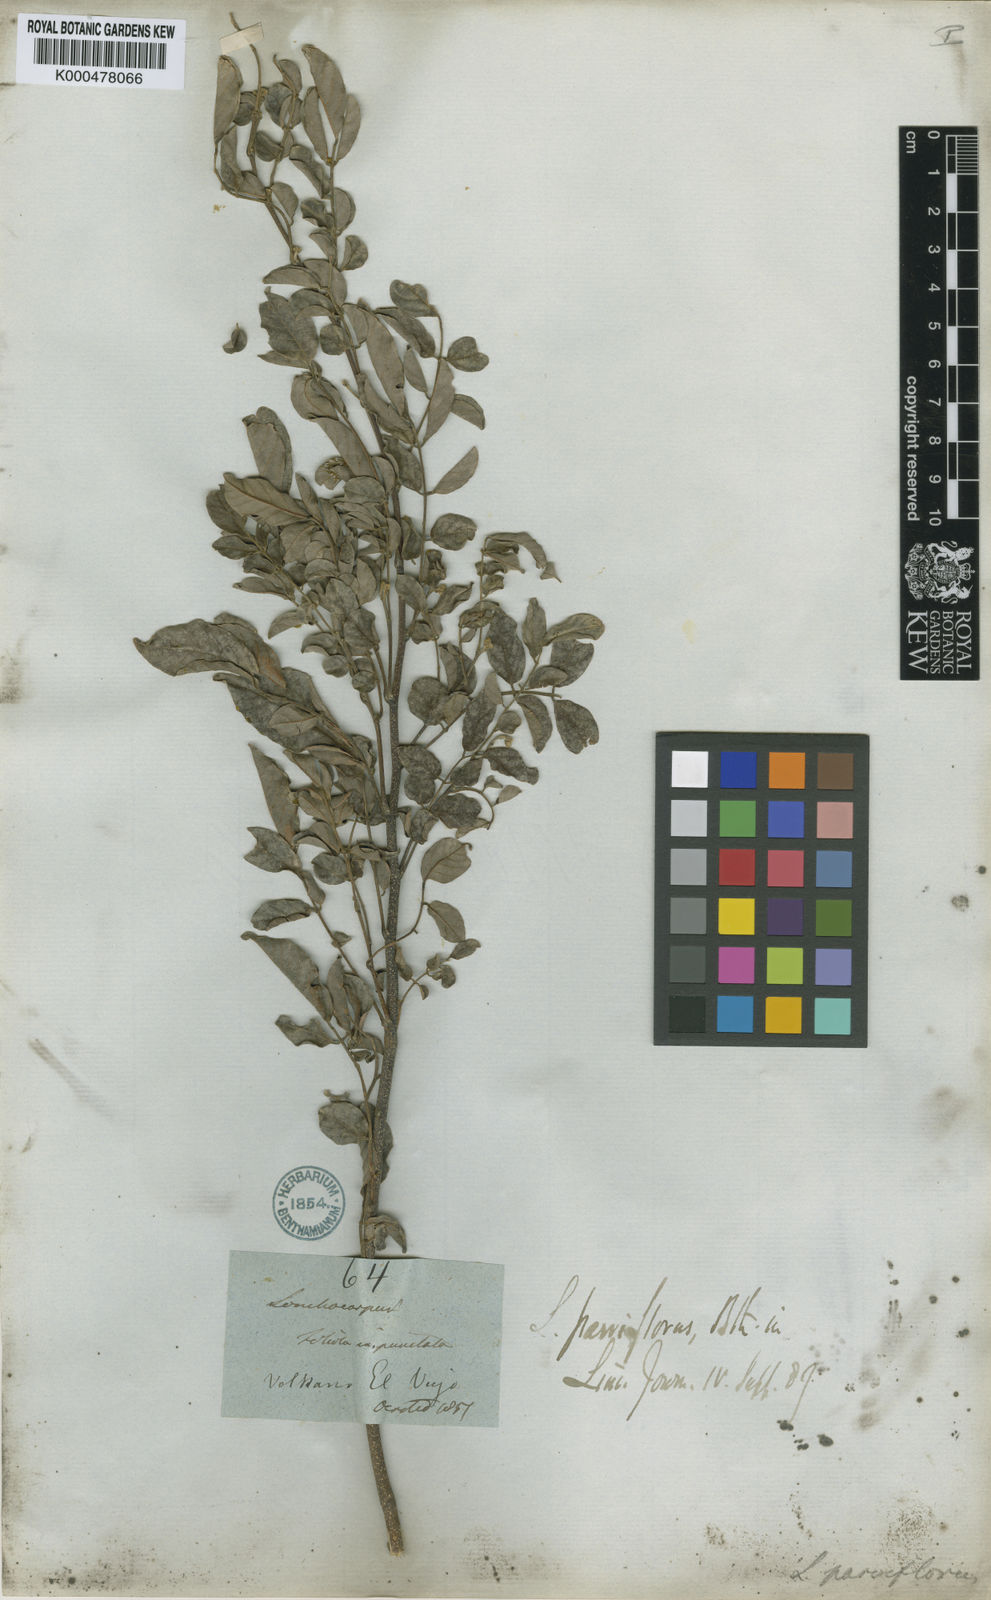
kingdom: Plantae
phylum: Tracheophyta
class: Magnoliopsida
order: Fabales
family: Fabaceae
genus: Lonchocarpus
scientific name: Lonchocarpus parviflorus
